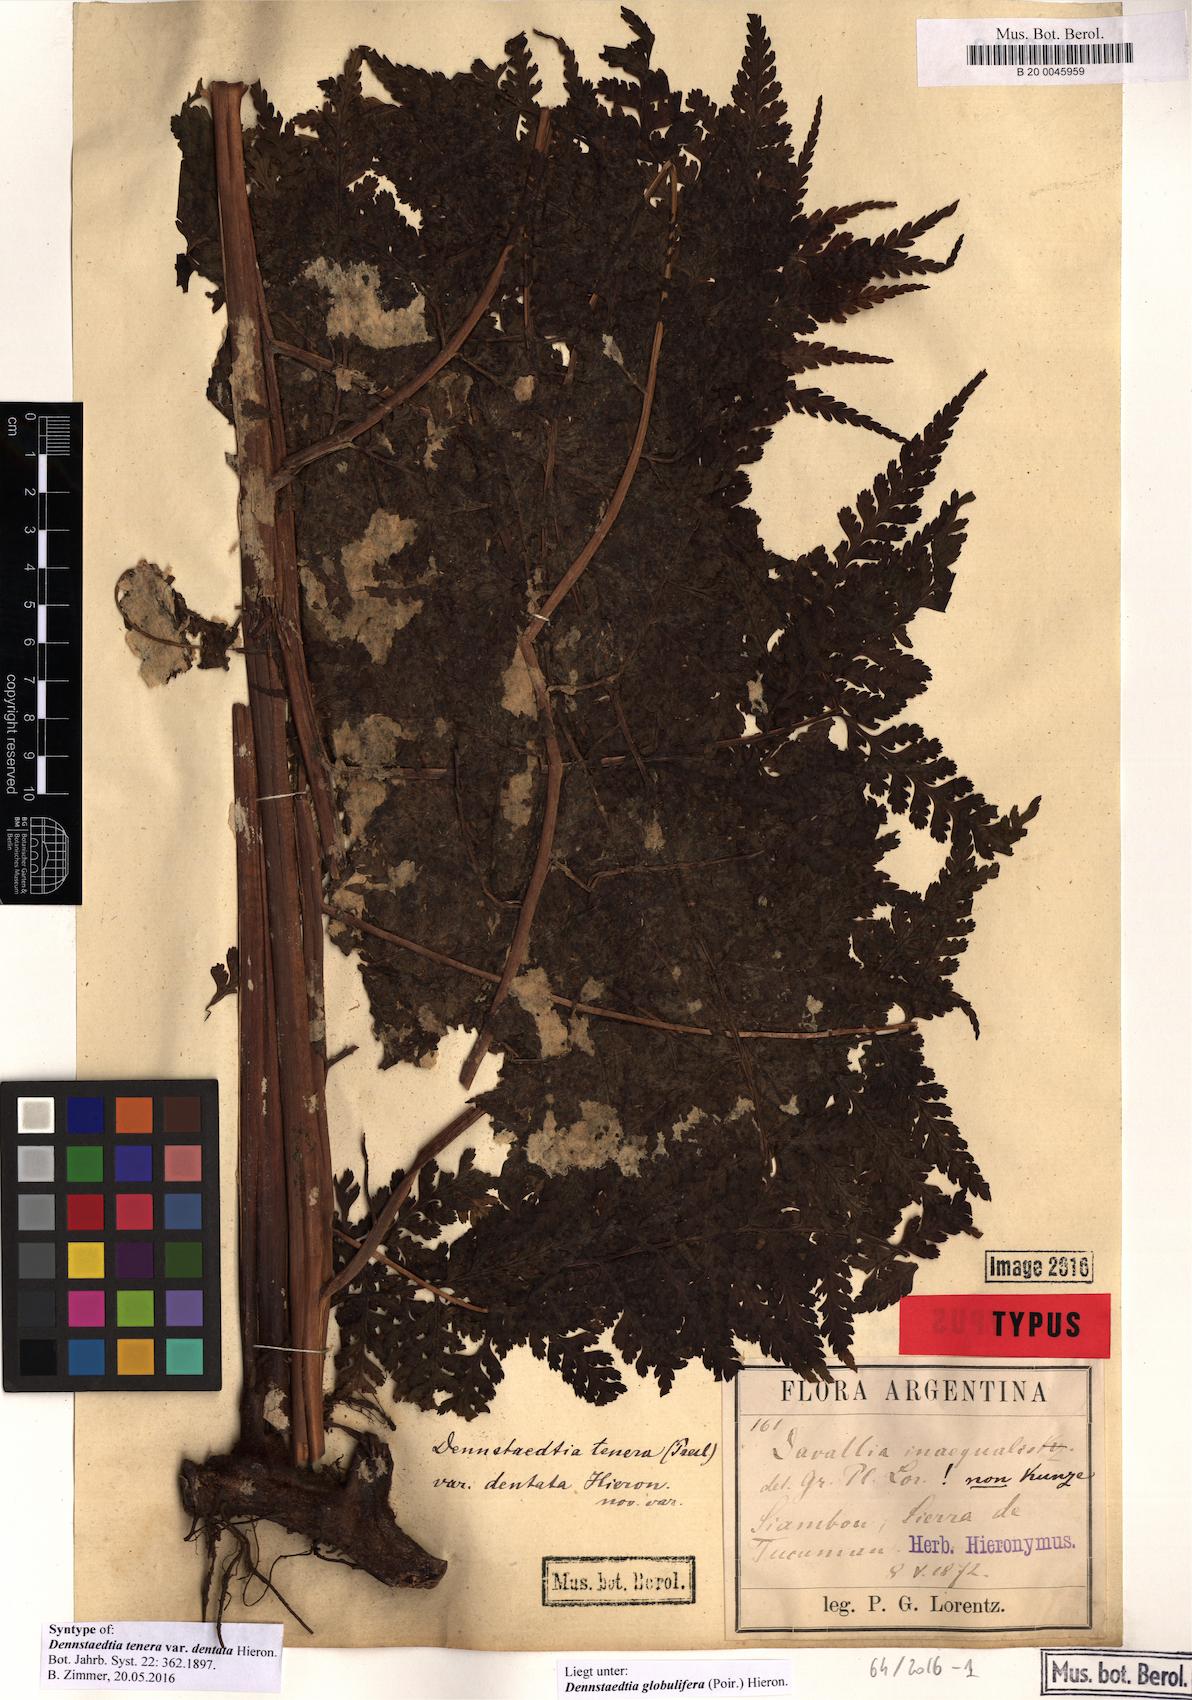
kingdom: Plantae
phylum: Tracheophyta
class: Polypodiopsida
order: Polypodiales
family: Dennstaedtiaceae
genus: Mucura
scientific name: Mucura globulifera
